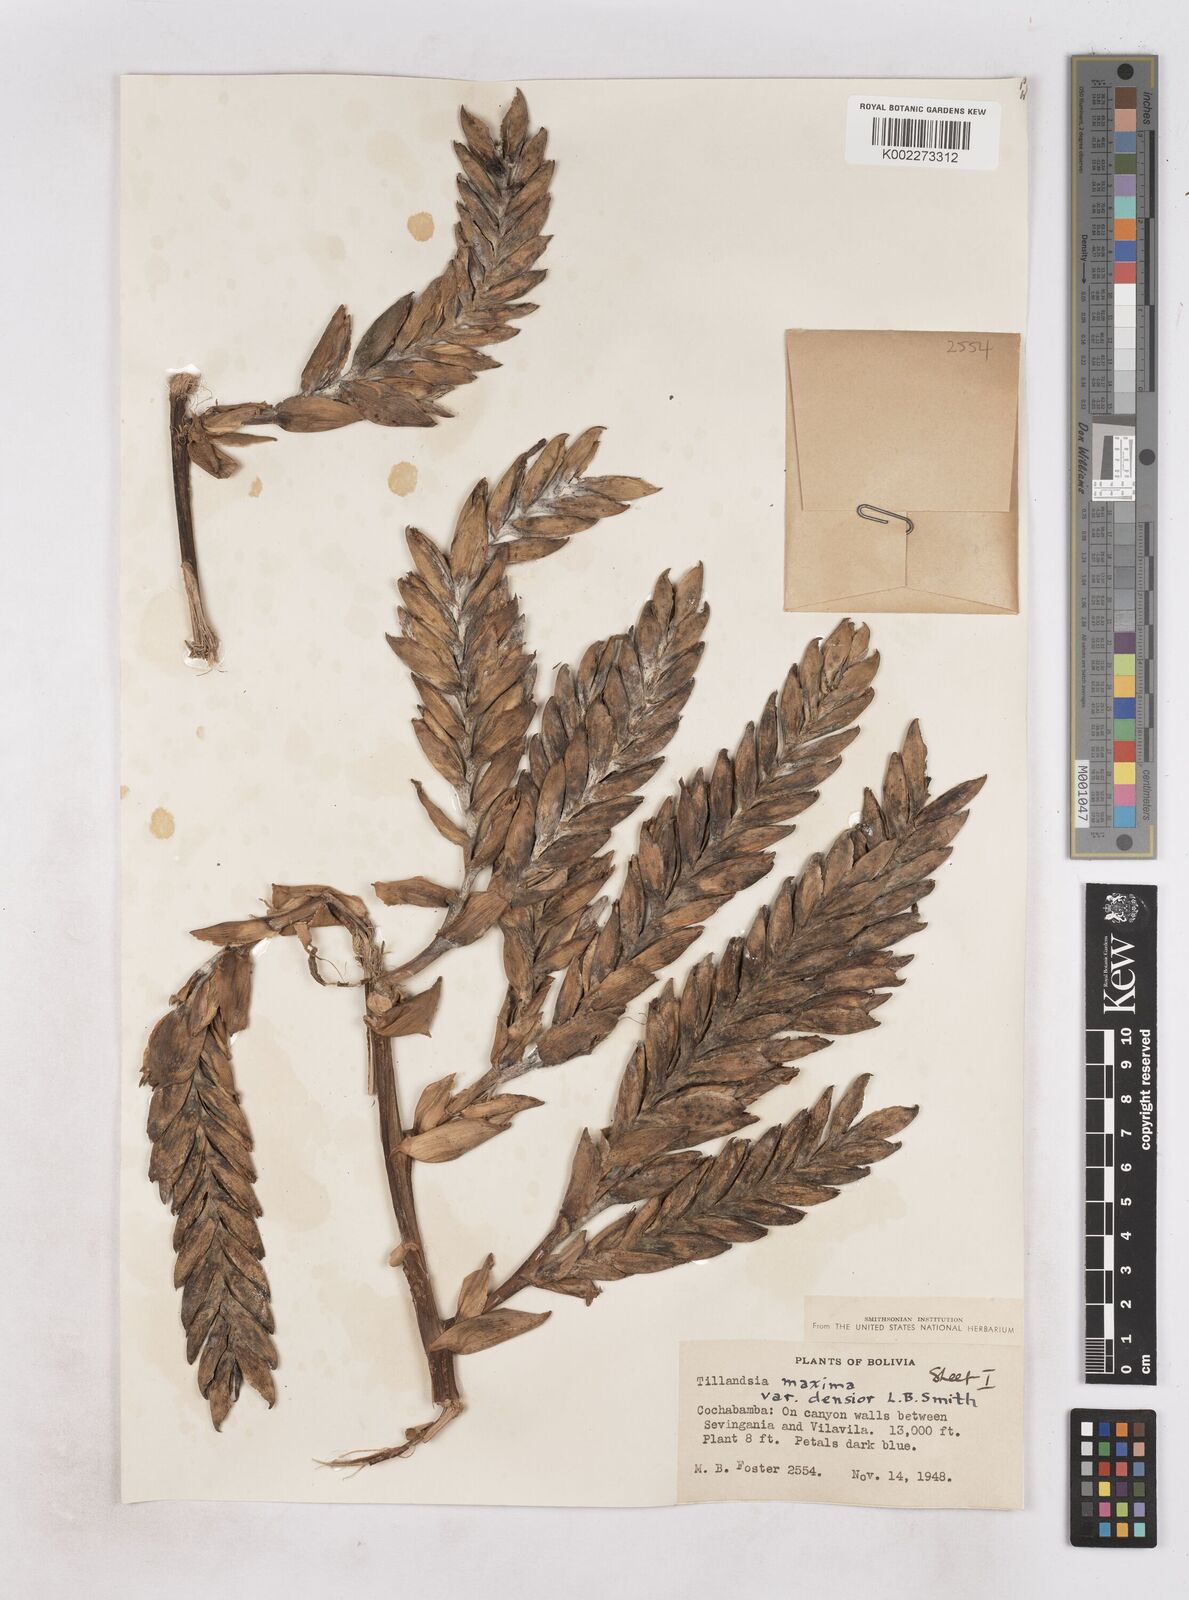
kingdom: Plantae
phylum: Tracheophyta
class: Liliopsida
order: Poales
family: Bromeliaceae
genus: Tillandsia
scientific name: Tillandsia
